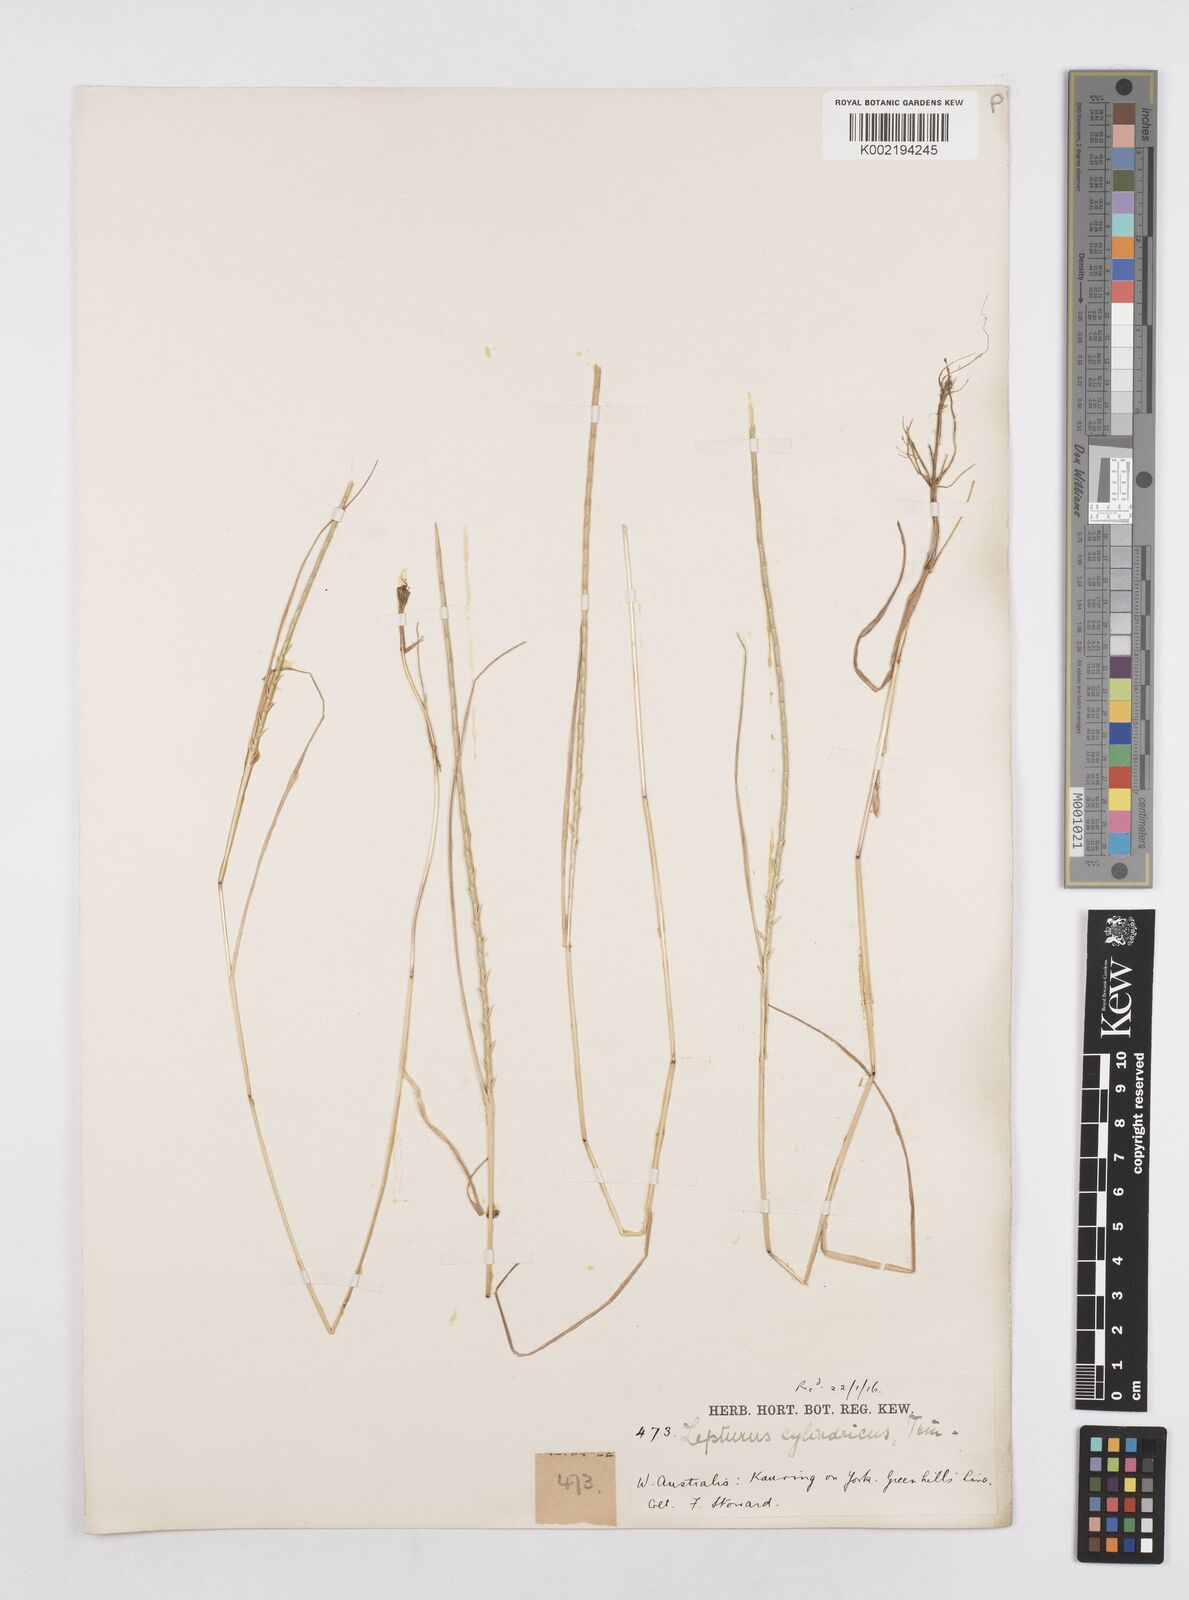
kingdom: Plantae
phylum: Tracheophyta
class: Liliopsida
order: Poales
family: Poaceae
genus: Parapholis
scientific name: Parapholis cylindrica
